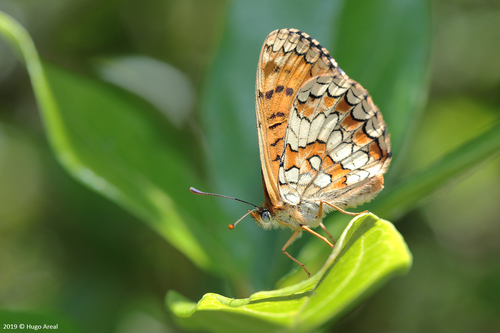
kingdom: Animalia
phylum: Arthropoda
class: Insecta
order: Lepidoptera
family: Nymphalidae
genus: Melitaea
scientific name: Melitaea deione
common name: Provençal fritillary
